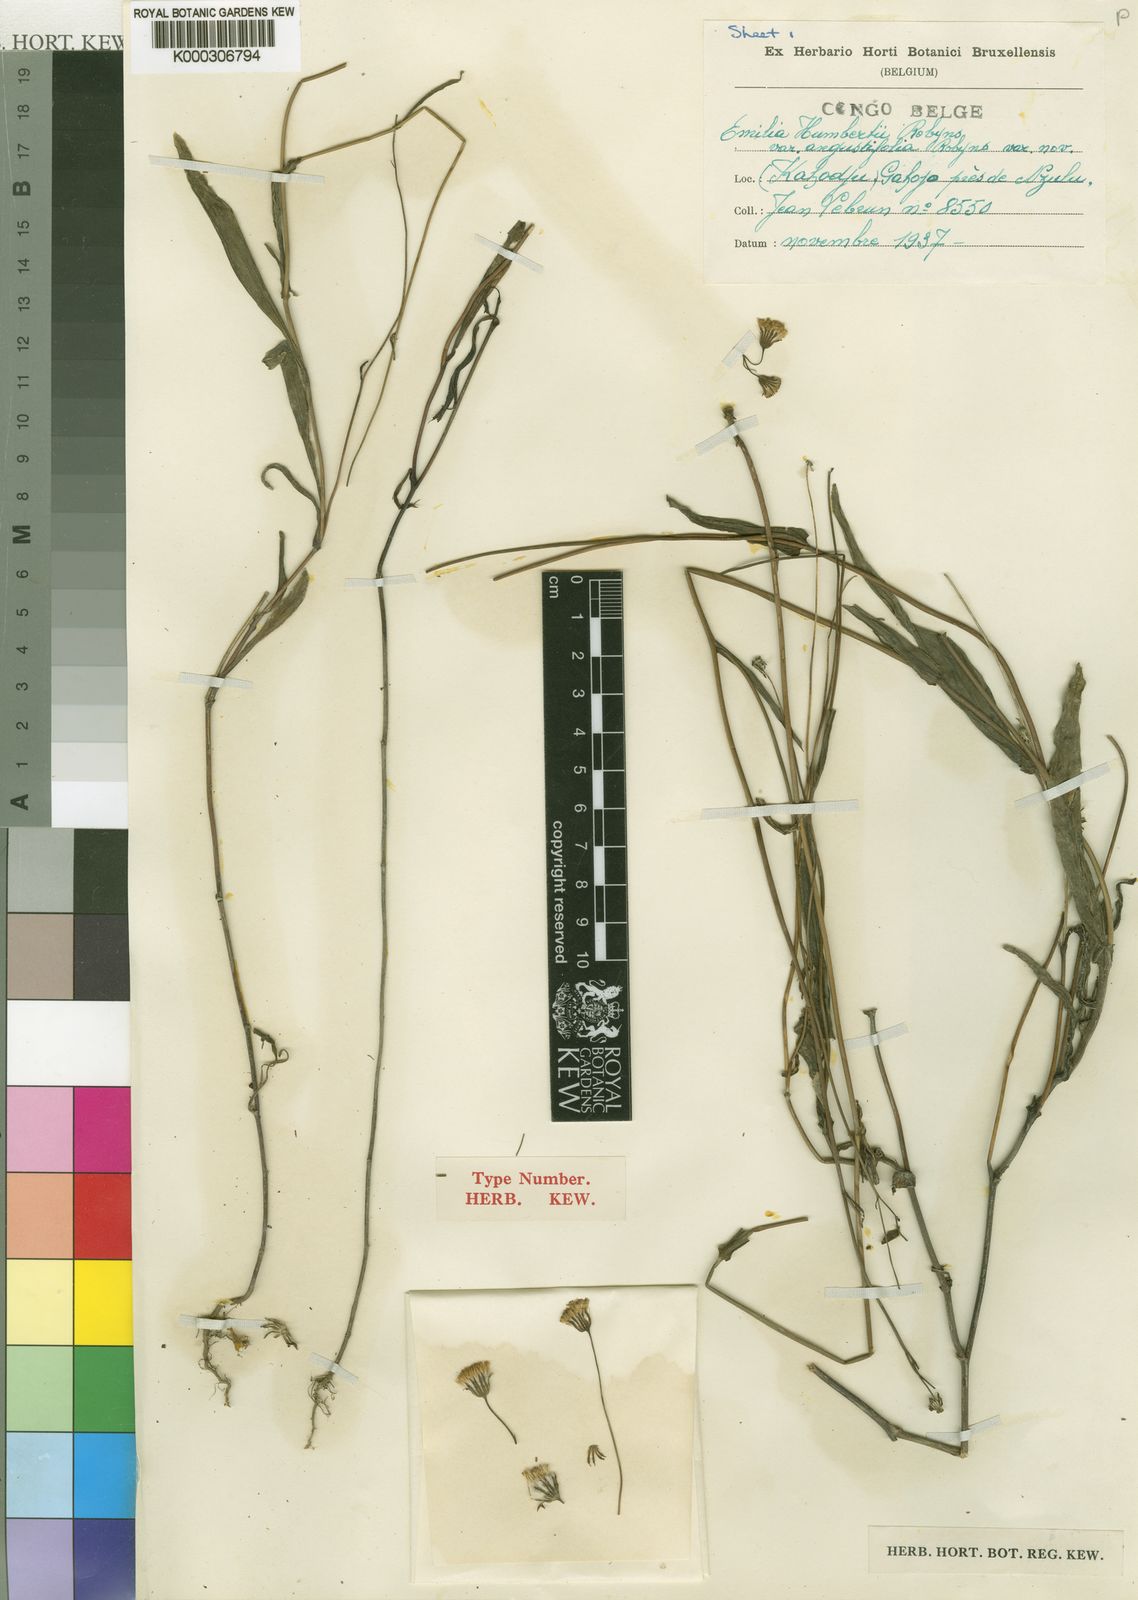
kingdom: Plantae
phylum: Tracheophyta
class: Magnoliopsida
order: Asterales
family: Asteraceae
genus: Emilia
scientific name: Emilia coccinea
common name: Scarlet tasselflower
